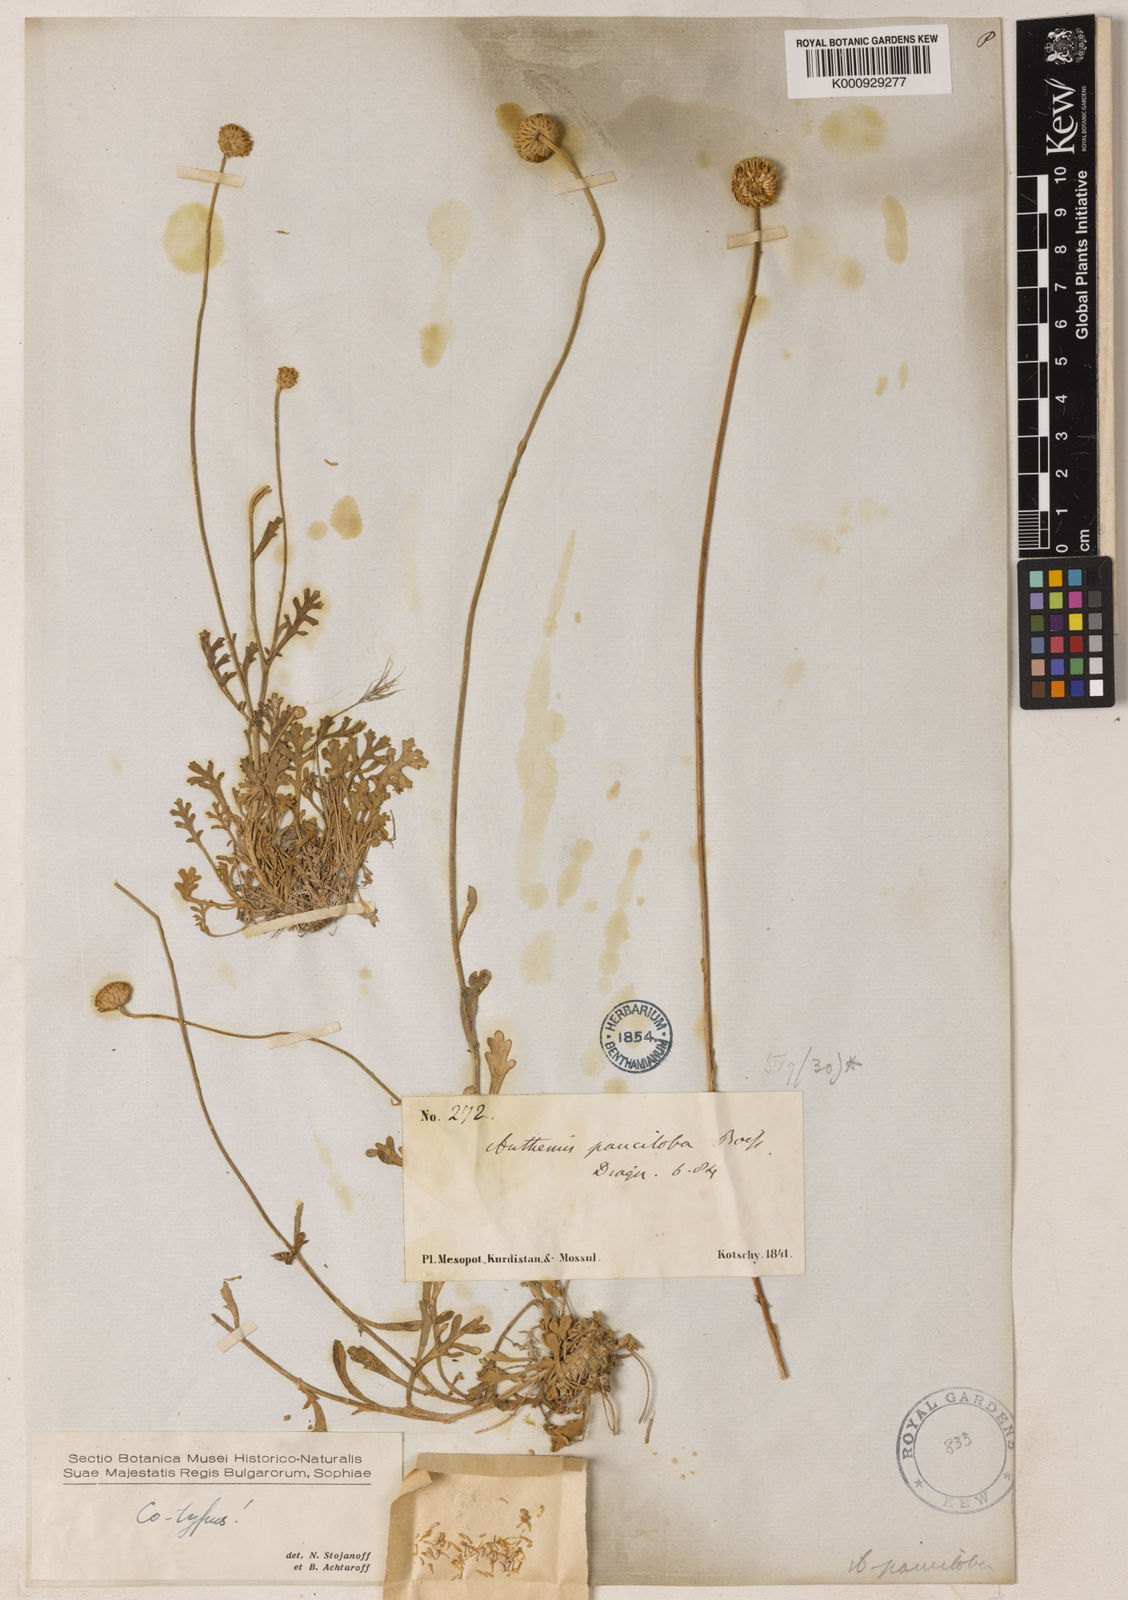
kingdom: Plantae
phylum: Tracheophyta
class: Magnoliopsida
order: Asterales
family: Asteraceae
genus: Anthemis
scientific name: Anthemis pauciloba
